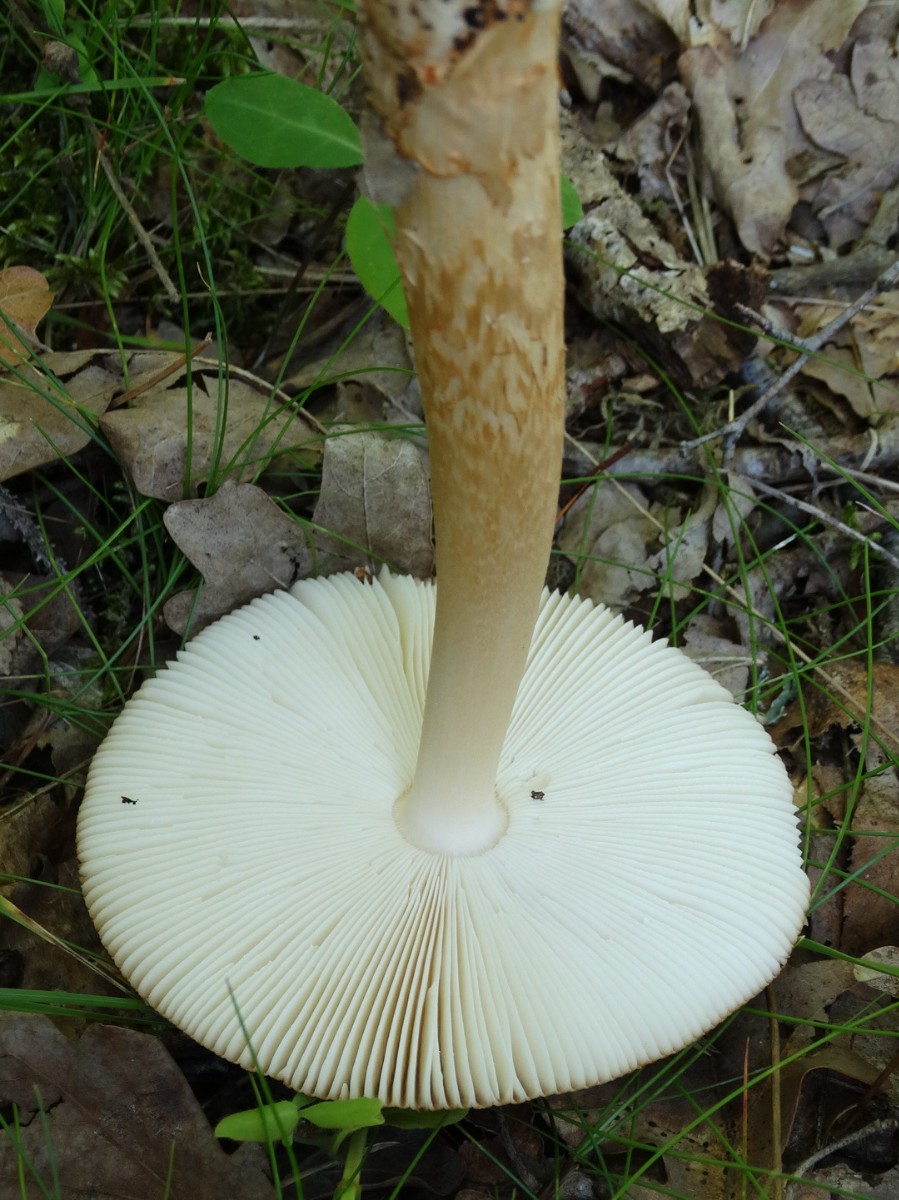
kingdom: Fungi
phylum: Basidiomycota
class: Agaricomycetes
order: Agaricales
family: Amanitaceae
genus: Amanita
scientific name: Amanita fulva
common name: brun kam-fluesvamp
